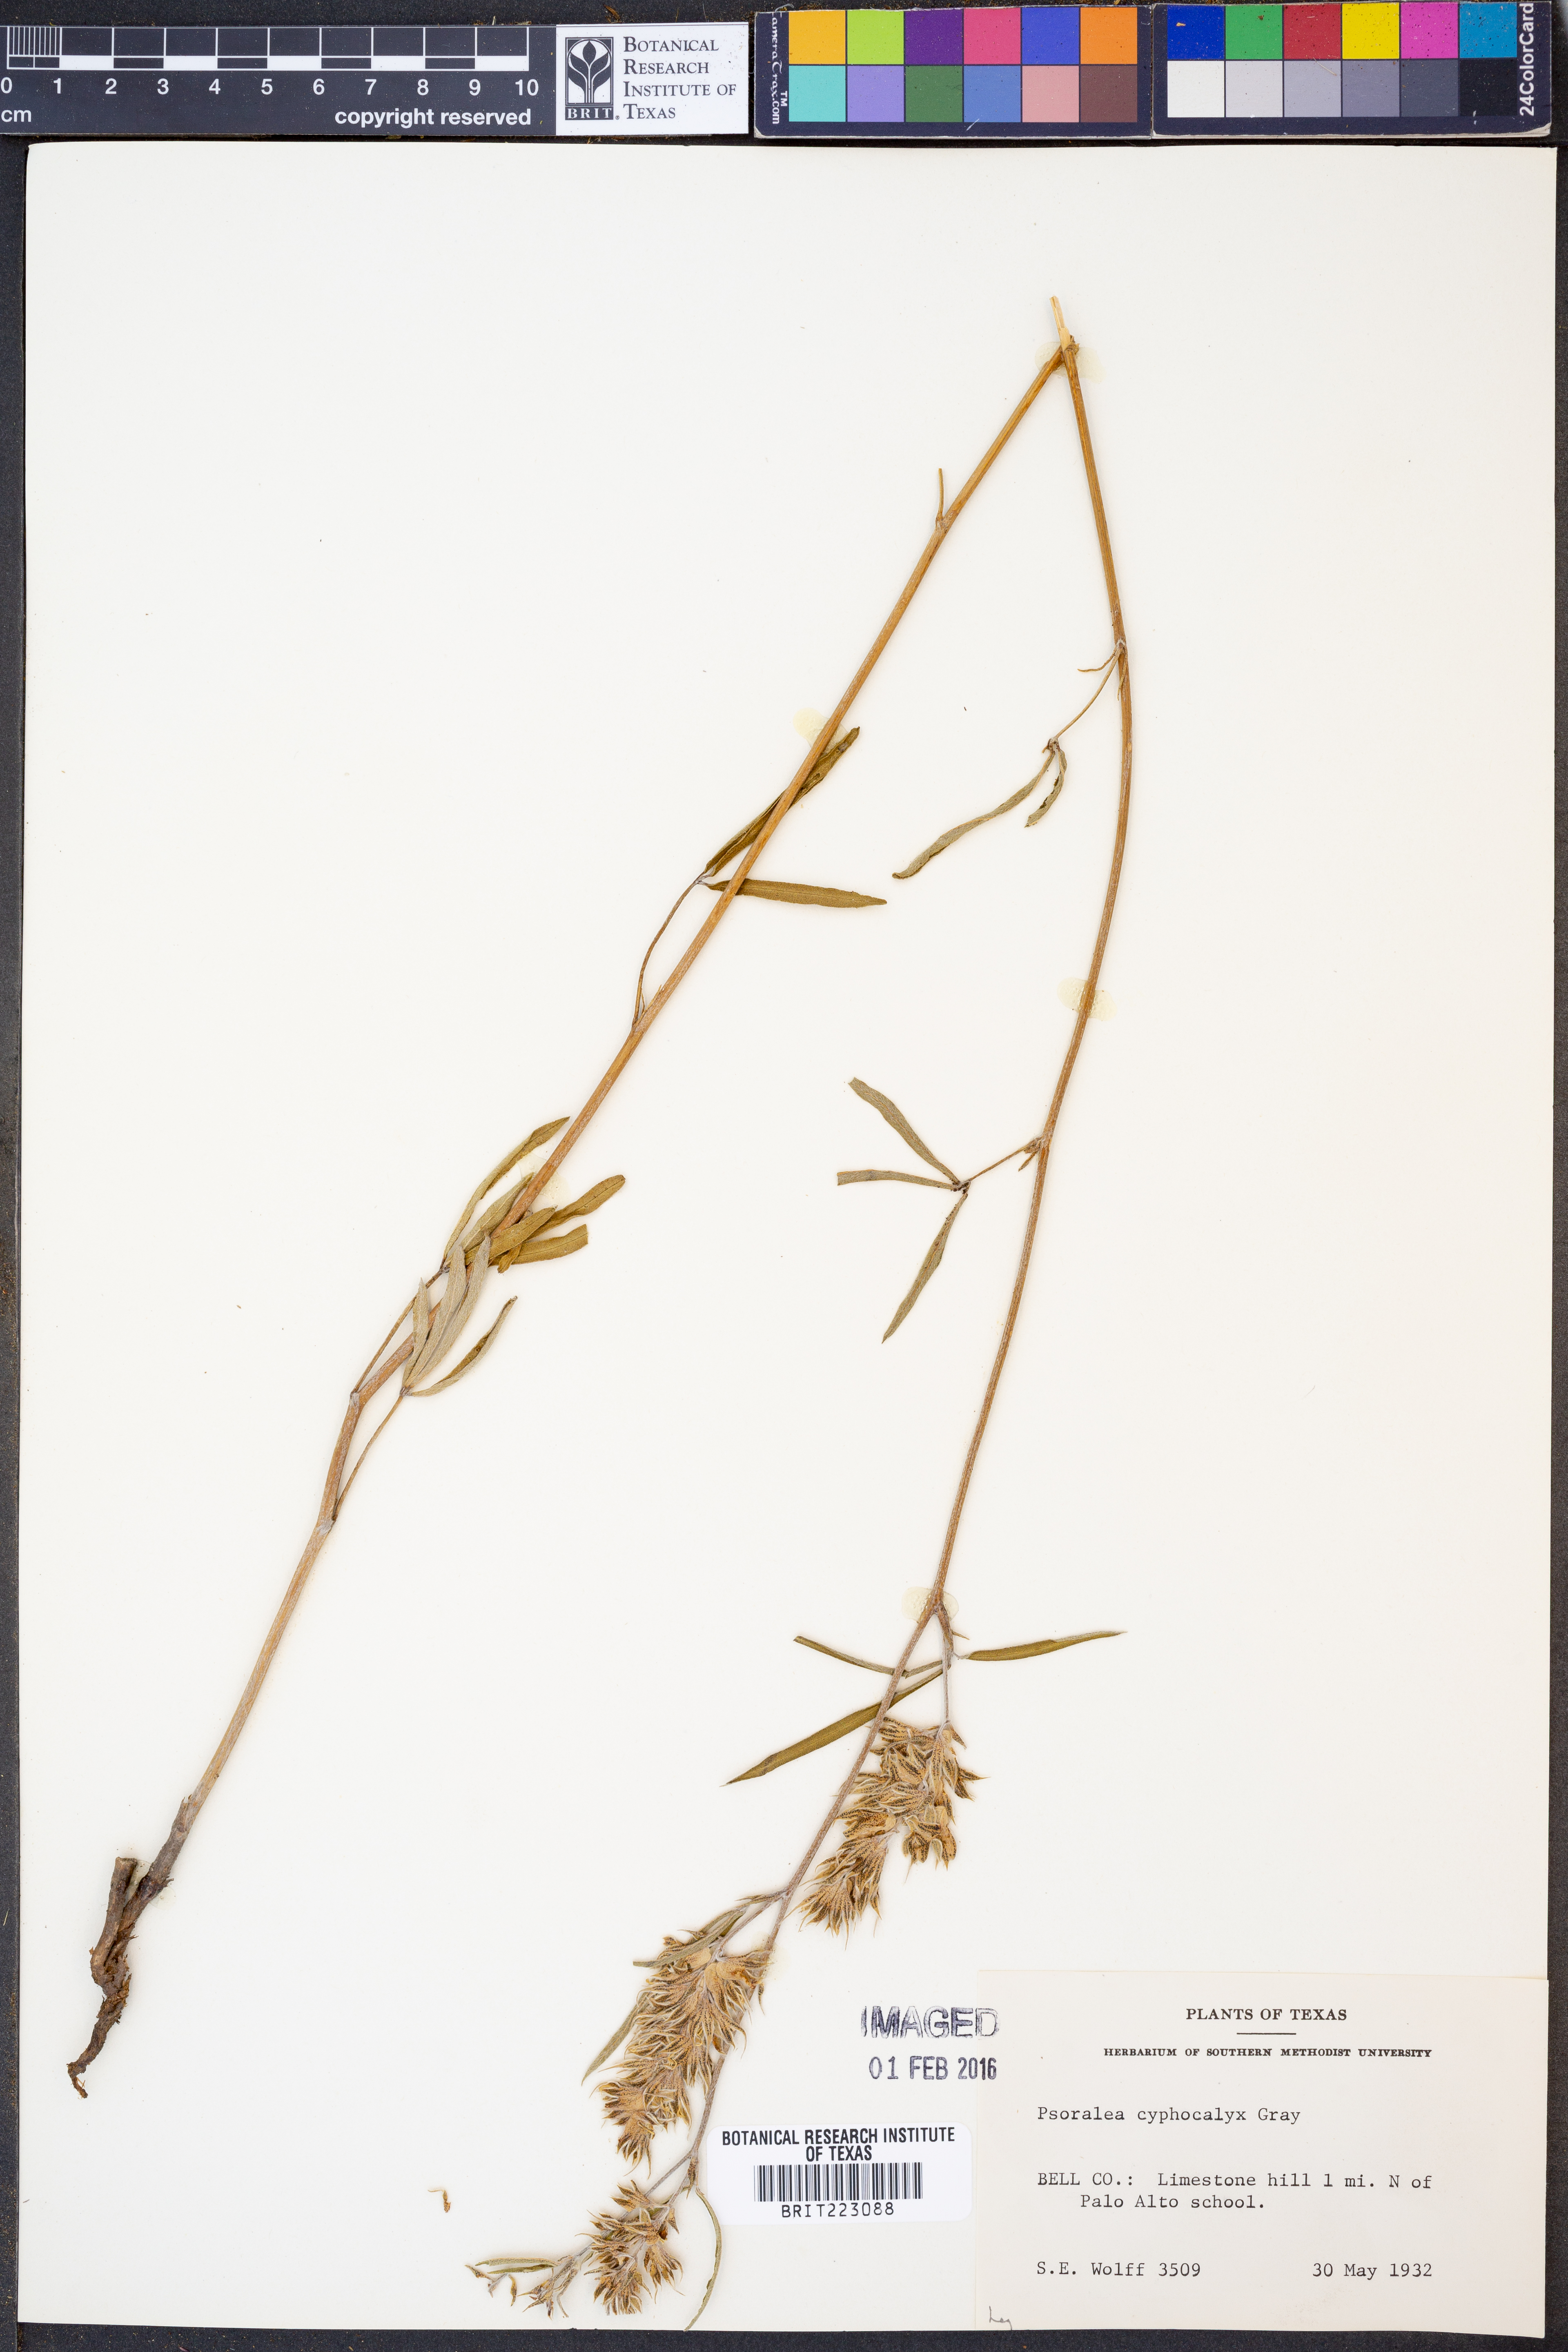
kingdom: Plantae
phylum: Tracheophyta
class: Magnoliopsida
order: Fabales
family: Fabaceae
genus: Pediomelum
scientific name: Pediomelum cyphocalyx
